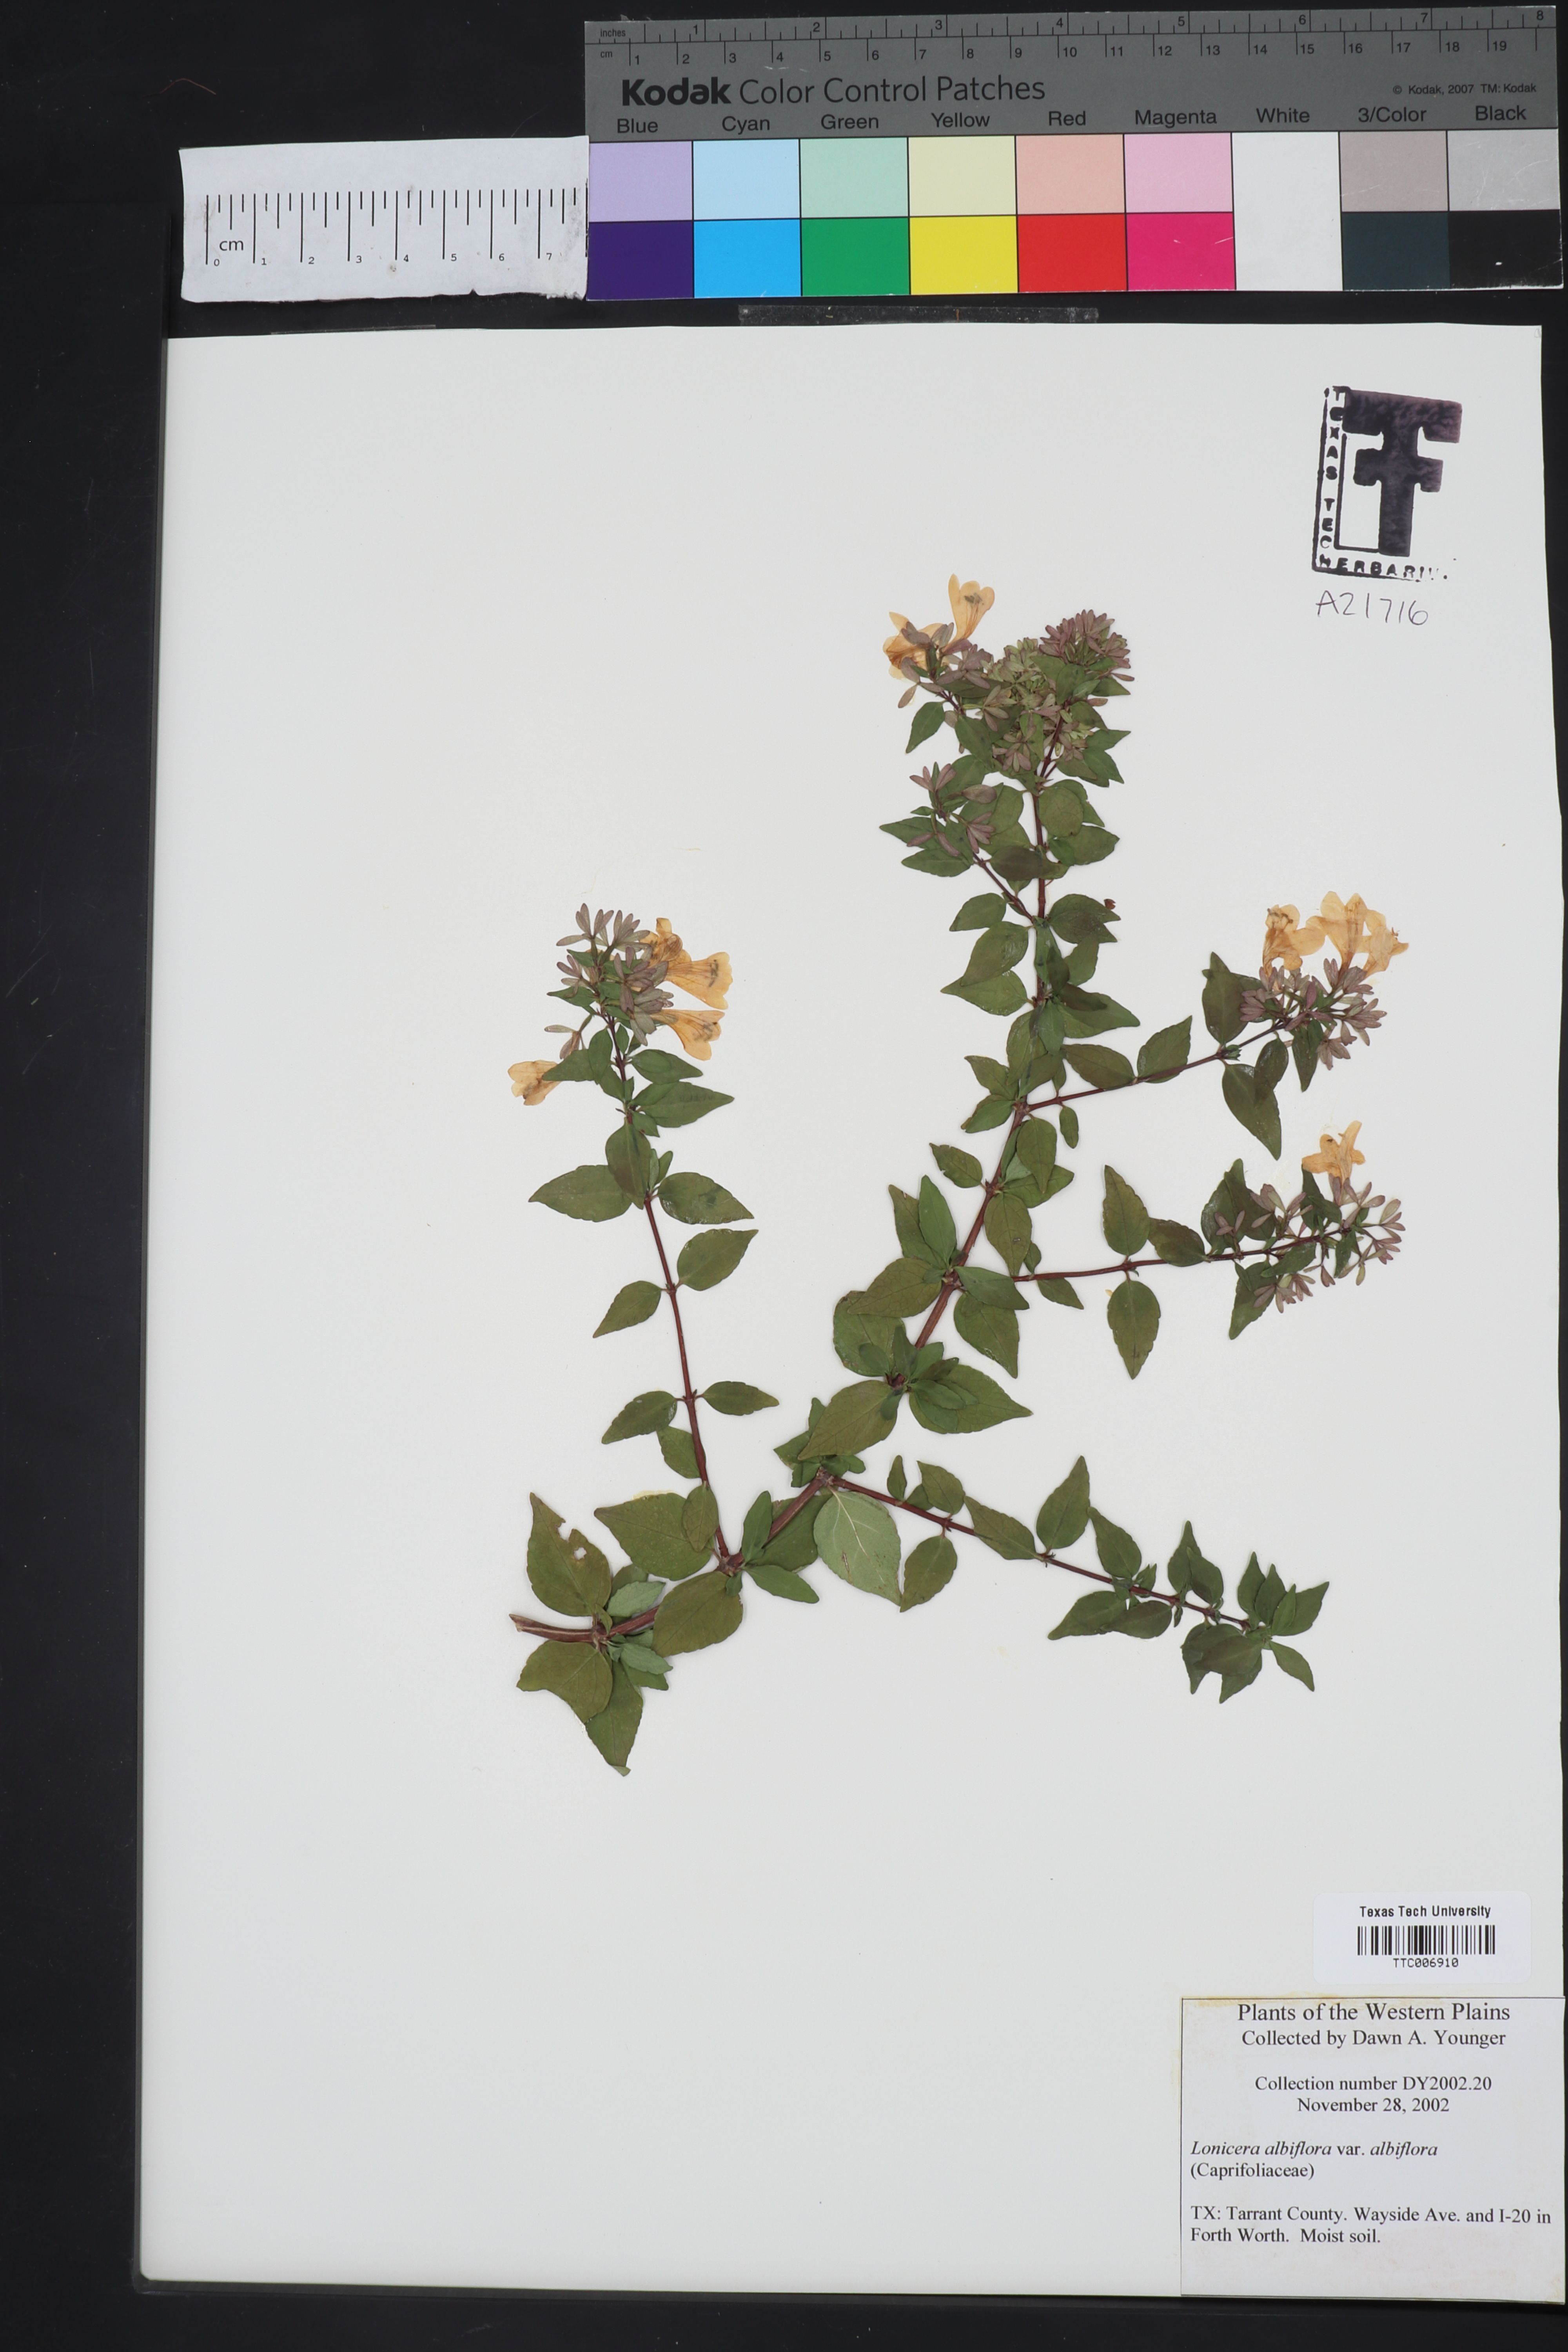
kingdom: Plantae
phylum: Tracheophyta
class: Magnoliopsida
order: Dipsacales
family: Caprifoliaceae
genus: Lonicera
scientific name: Lonicera albiflora
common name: White honeysuckle
